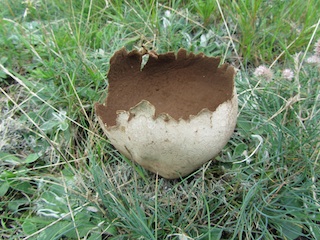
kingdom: Fungi
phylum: Basidiomycota
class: Agaricomycetes
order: Agaricales
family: Lycoperdaceae
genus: Bovistella
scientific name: Bovistella utriformis
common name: skællet støvbold
